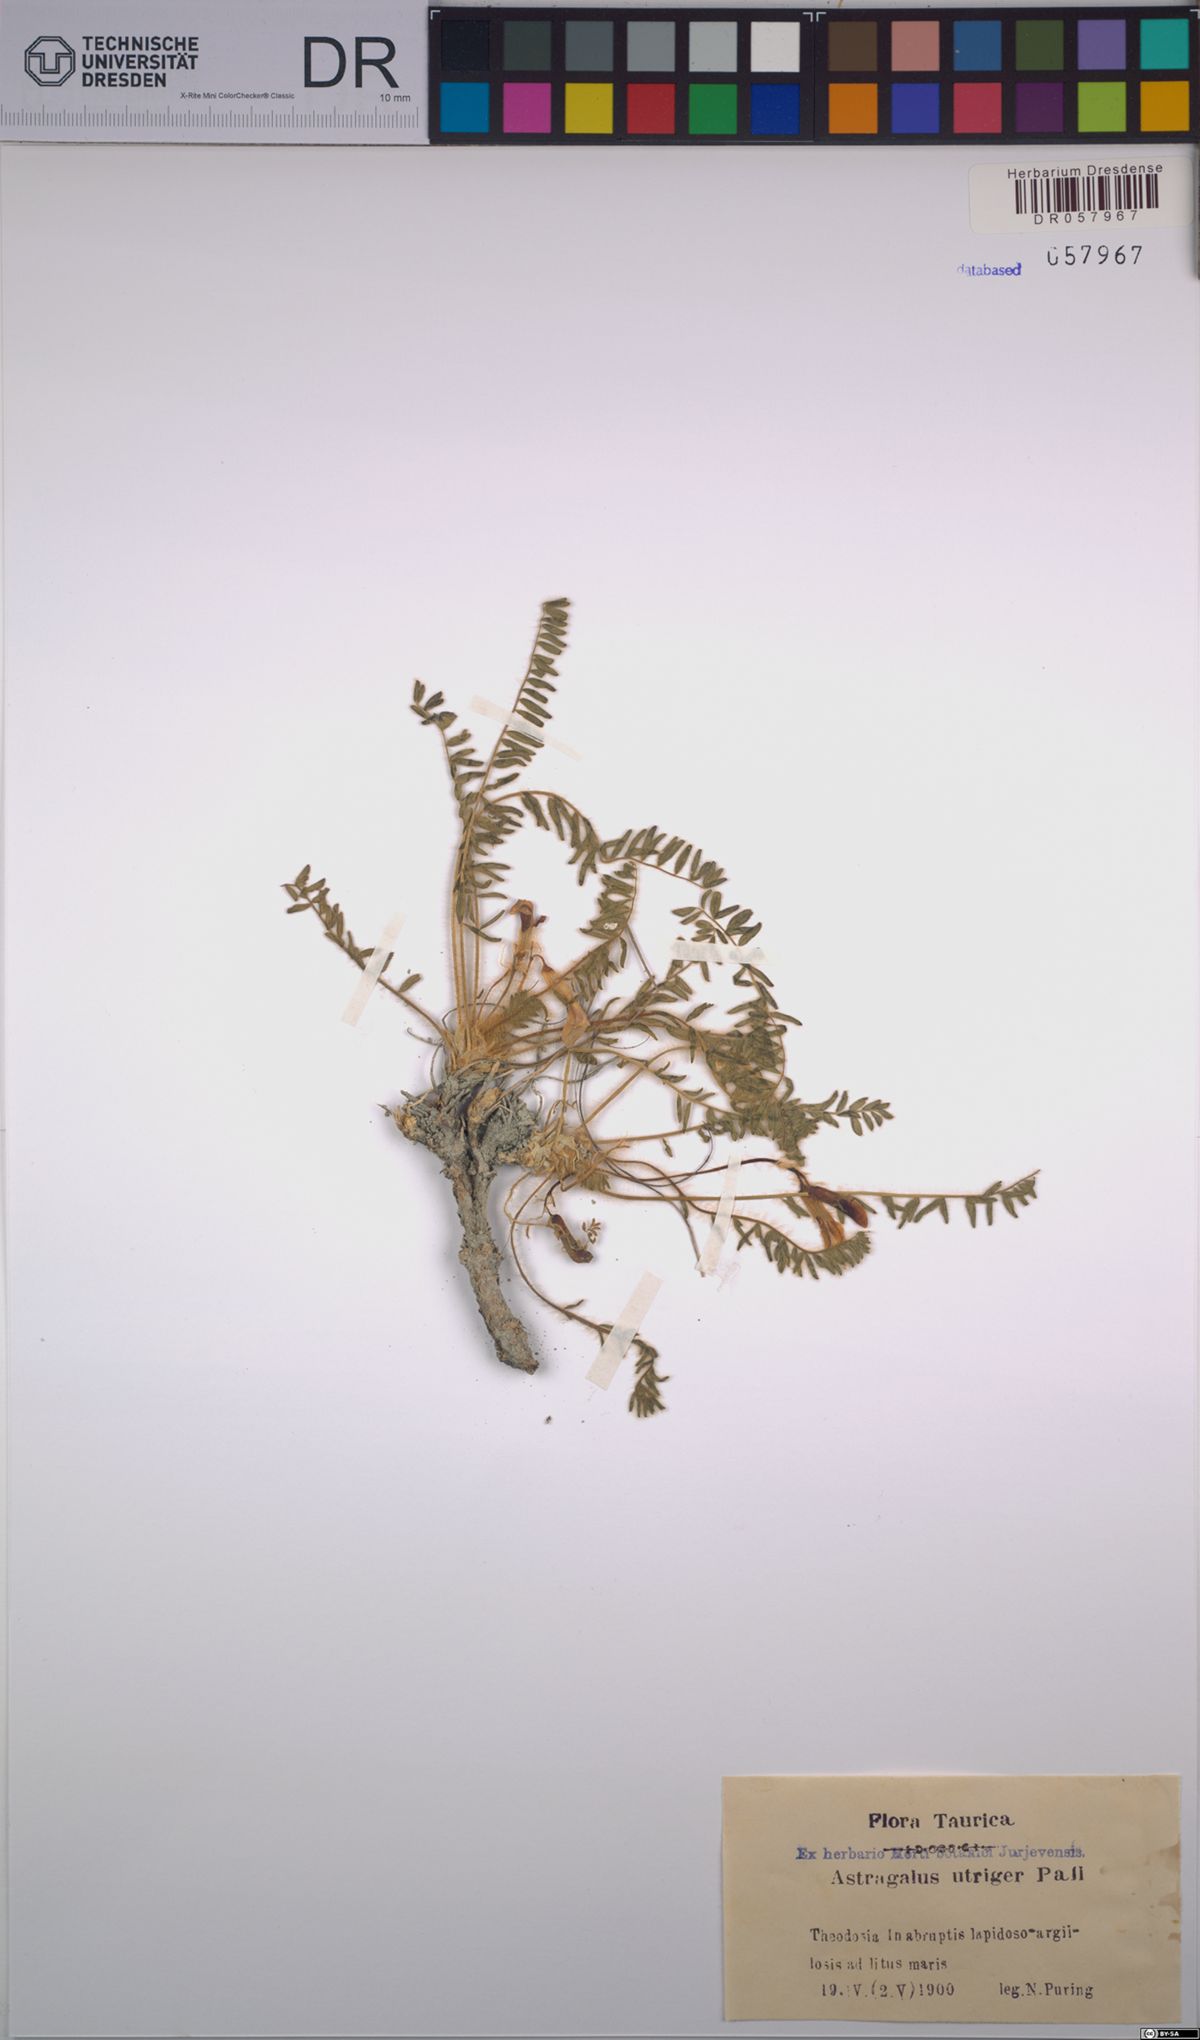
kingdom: Plantae
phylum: Tracheophyta
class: Magnoliopsida
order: Fabales
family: Fabaceae
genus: Astragalus
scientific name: Astragalus utriger
